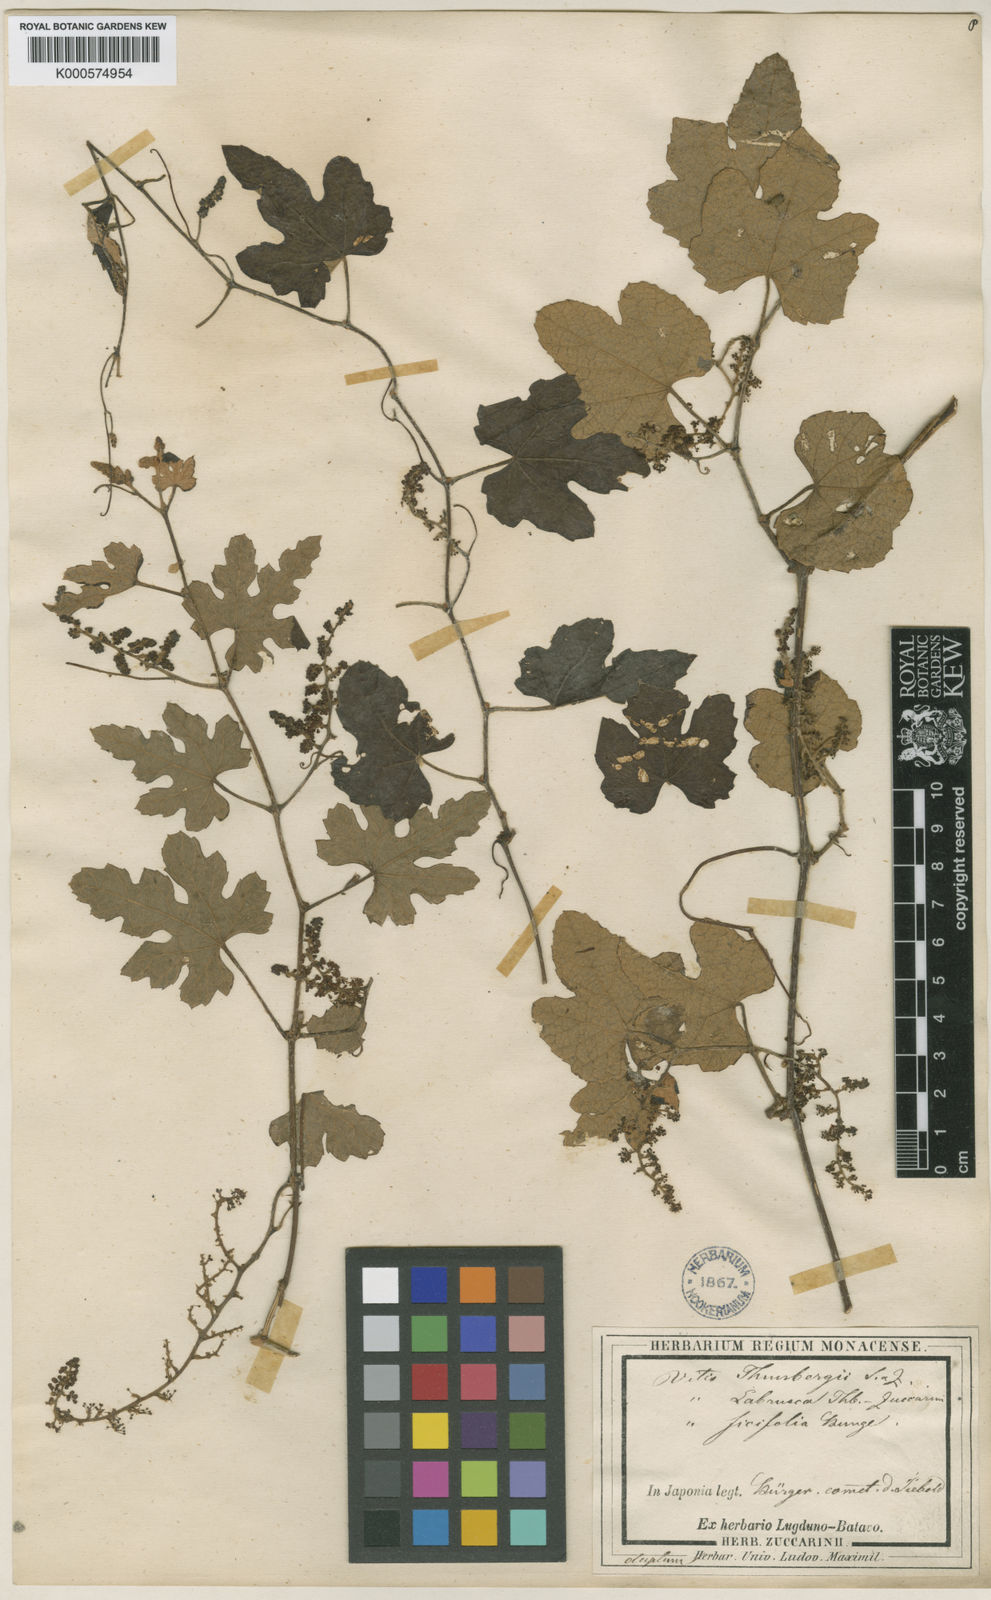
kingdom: Plantae
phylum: Tracheophyta
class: Magnoliopsida
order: Vitales
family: Vitaceae
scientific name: Vitaceae
